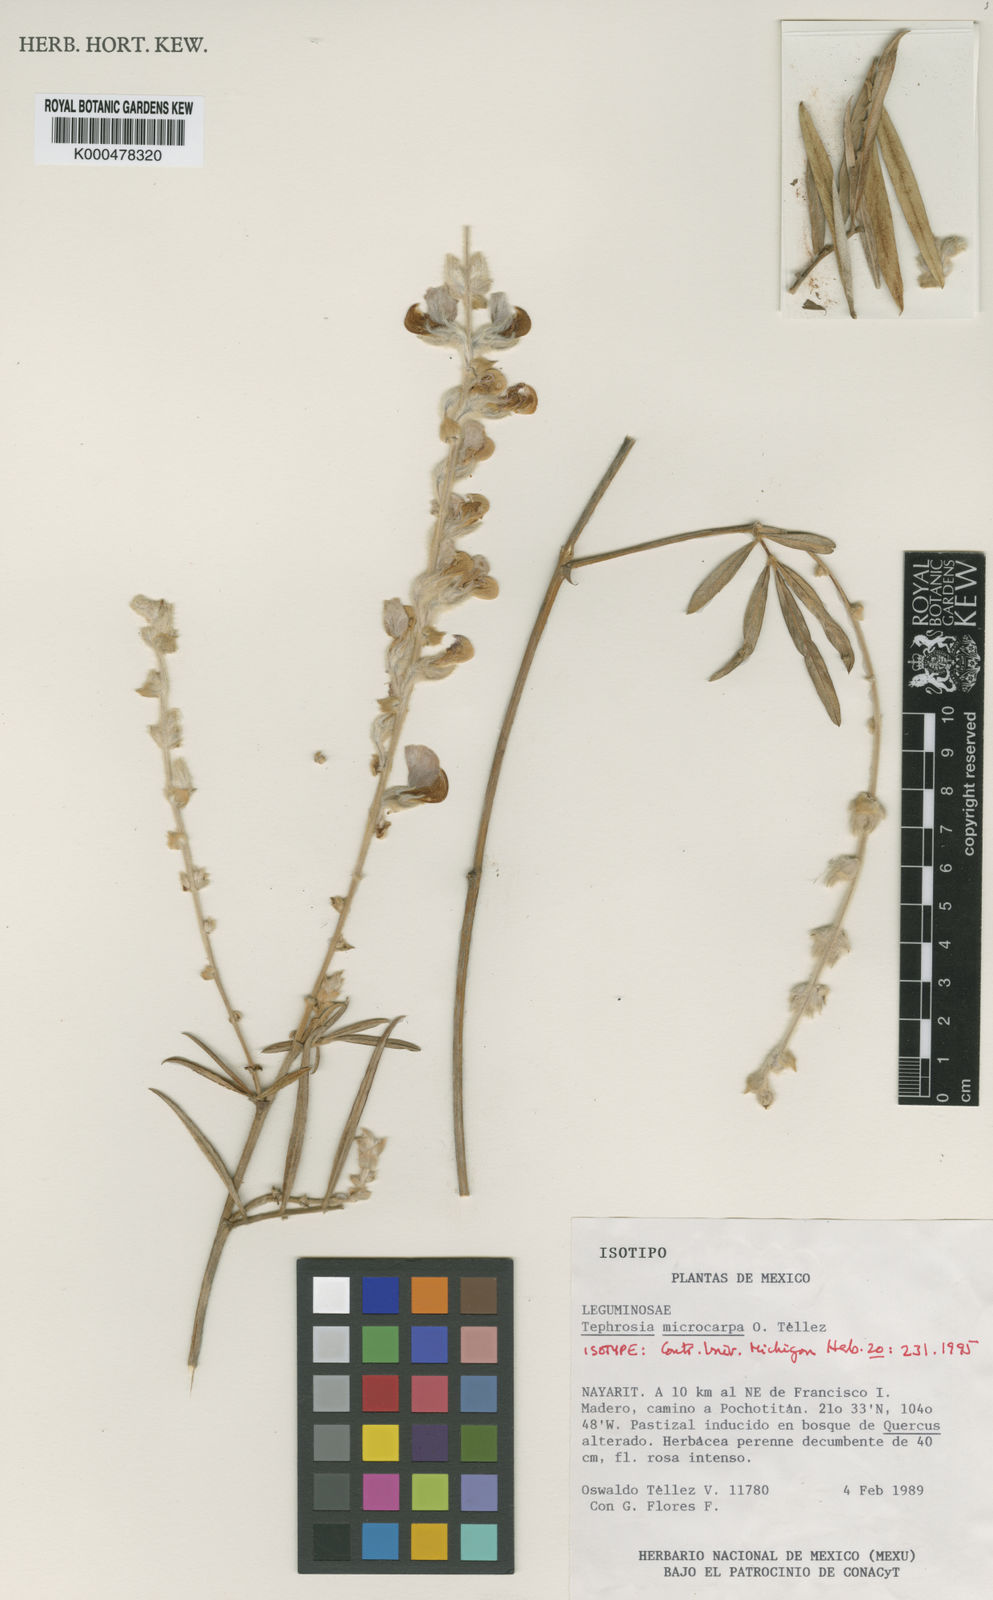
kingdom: Plantae
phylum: Tracheophyta
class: Magnoliopsida
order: Fabales
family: Fabaceae
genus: Tephrosia
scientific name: Tephrosia
